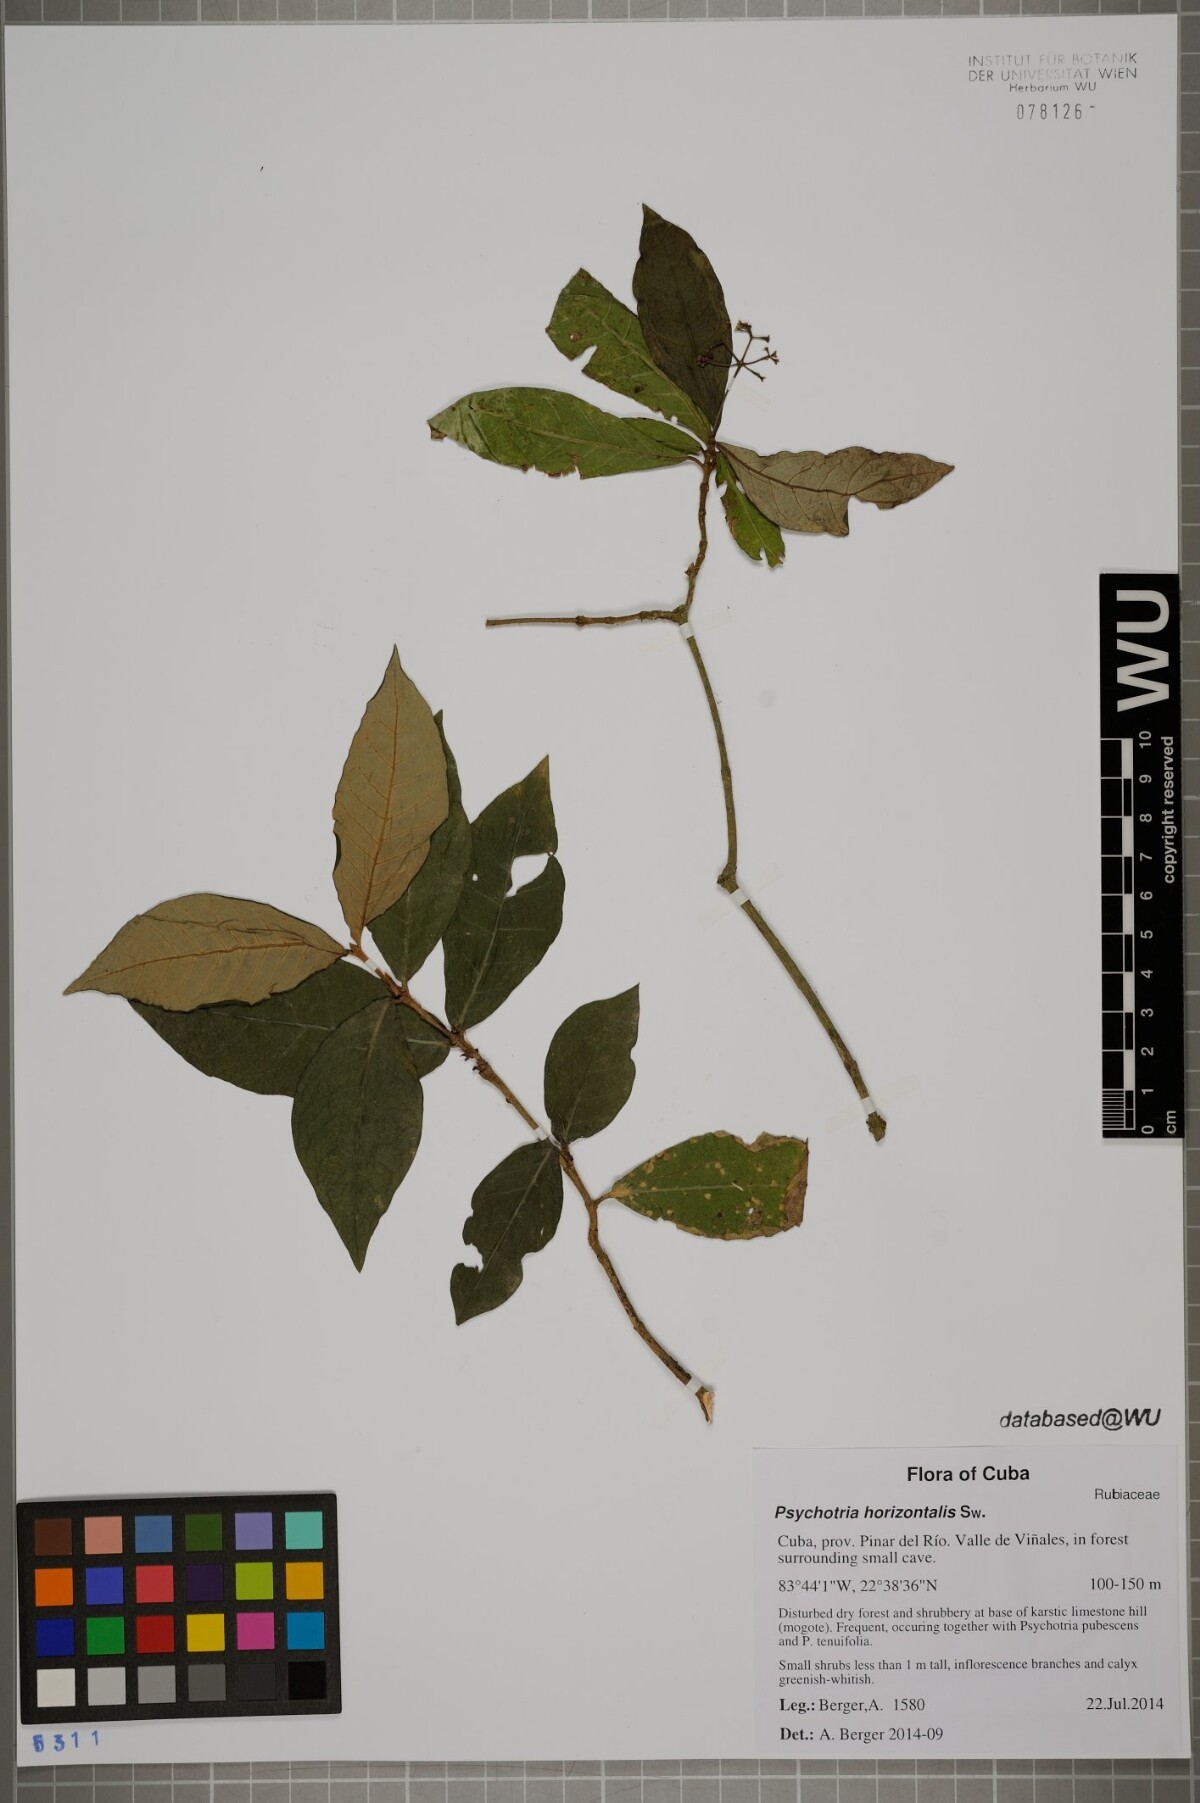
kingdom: Plantae
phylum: Tracheophyta
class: Magnoliopsida
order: Gentianales
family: Rubiaceae
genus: Psychotria
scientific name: Psychotria horizontalis
